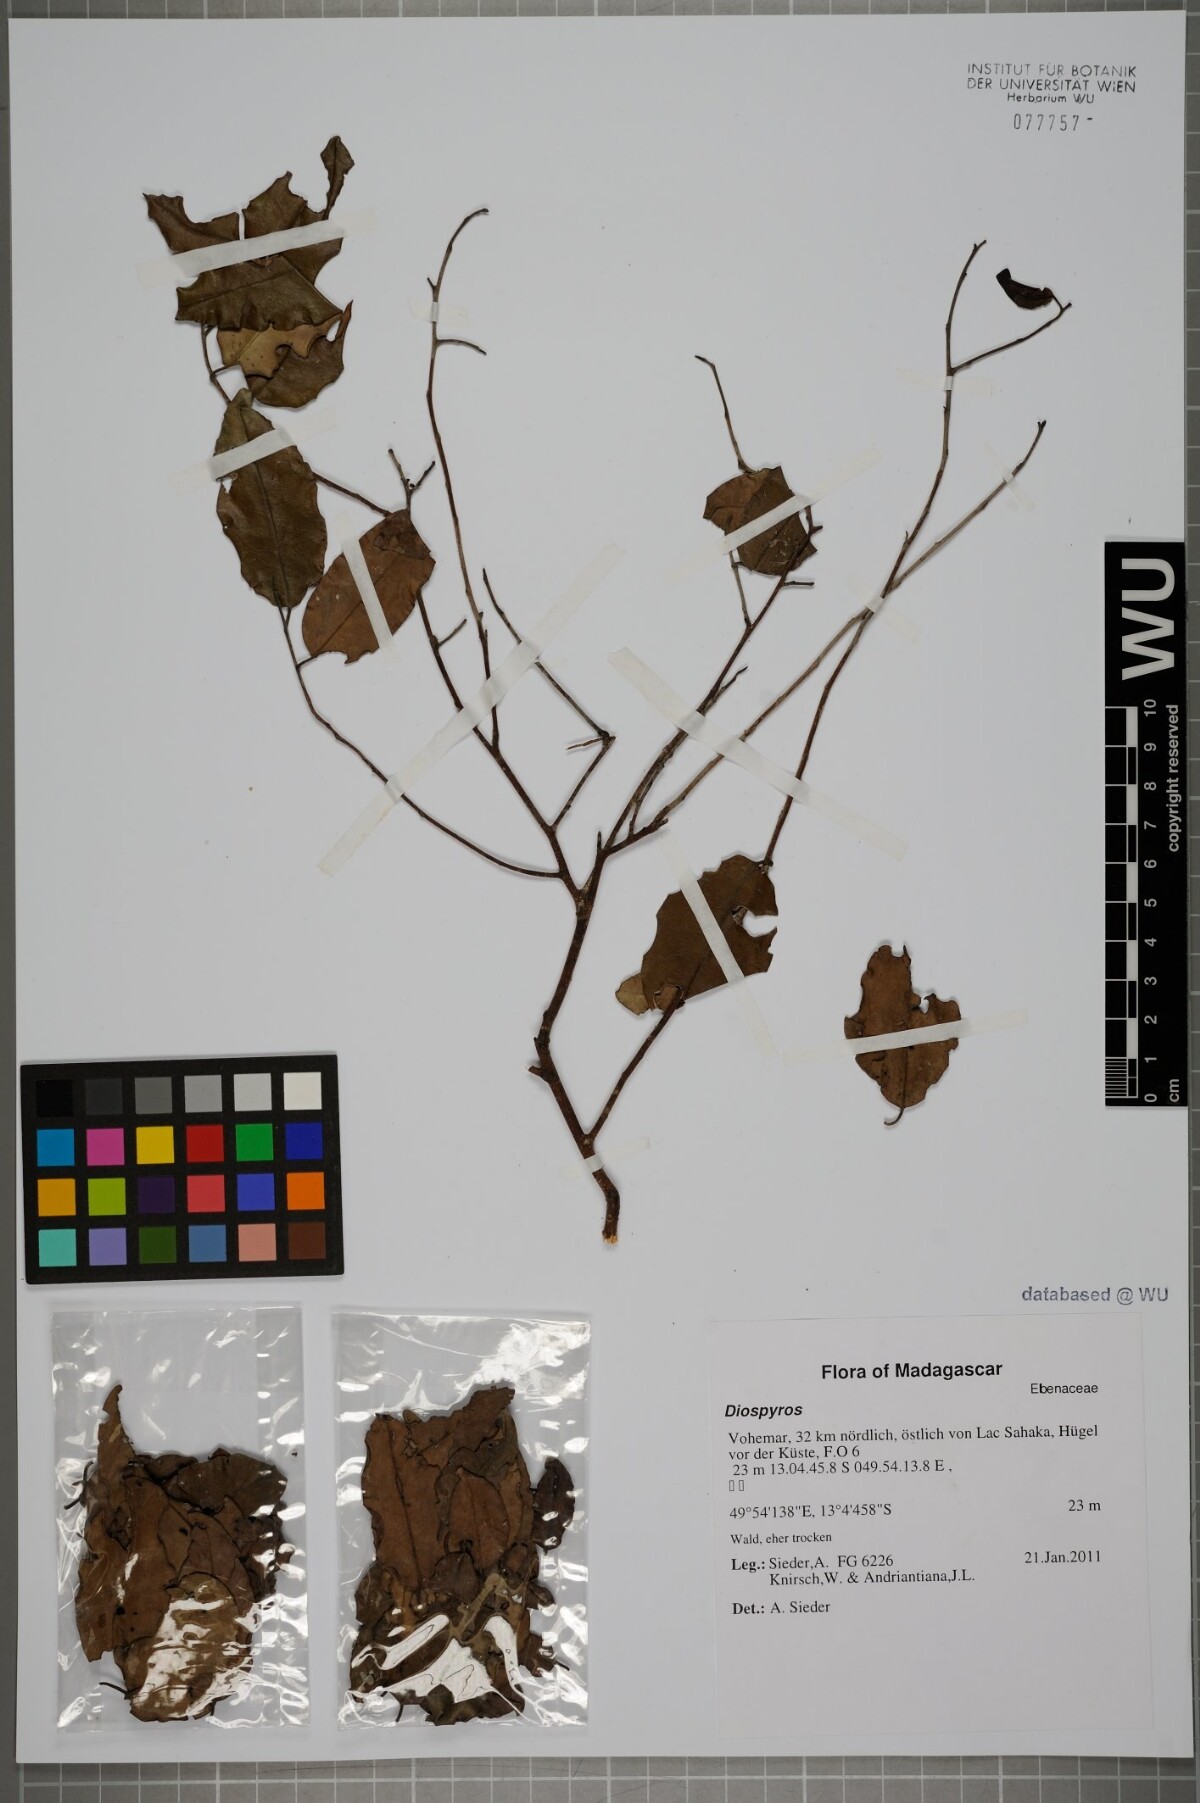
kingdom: Plantae
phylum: Tracheophyta
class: Magnoliopsida
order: Ericales
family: Ebenaceae
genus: Diospyros
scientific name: Diospyros
